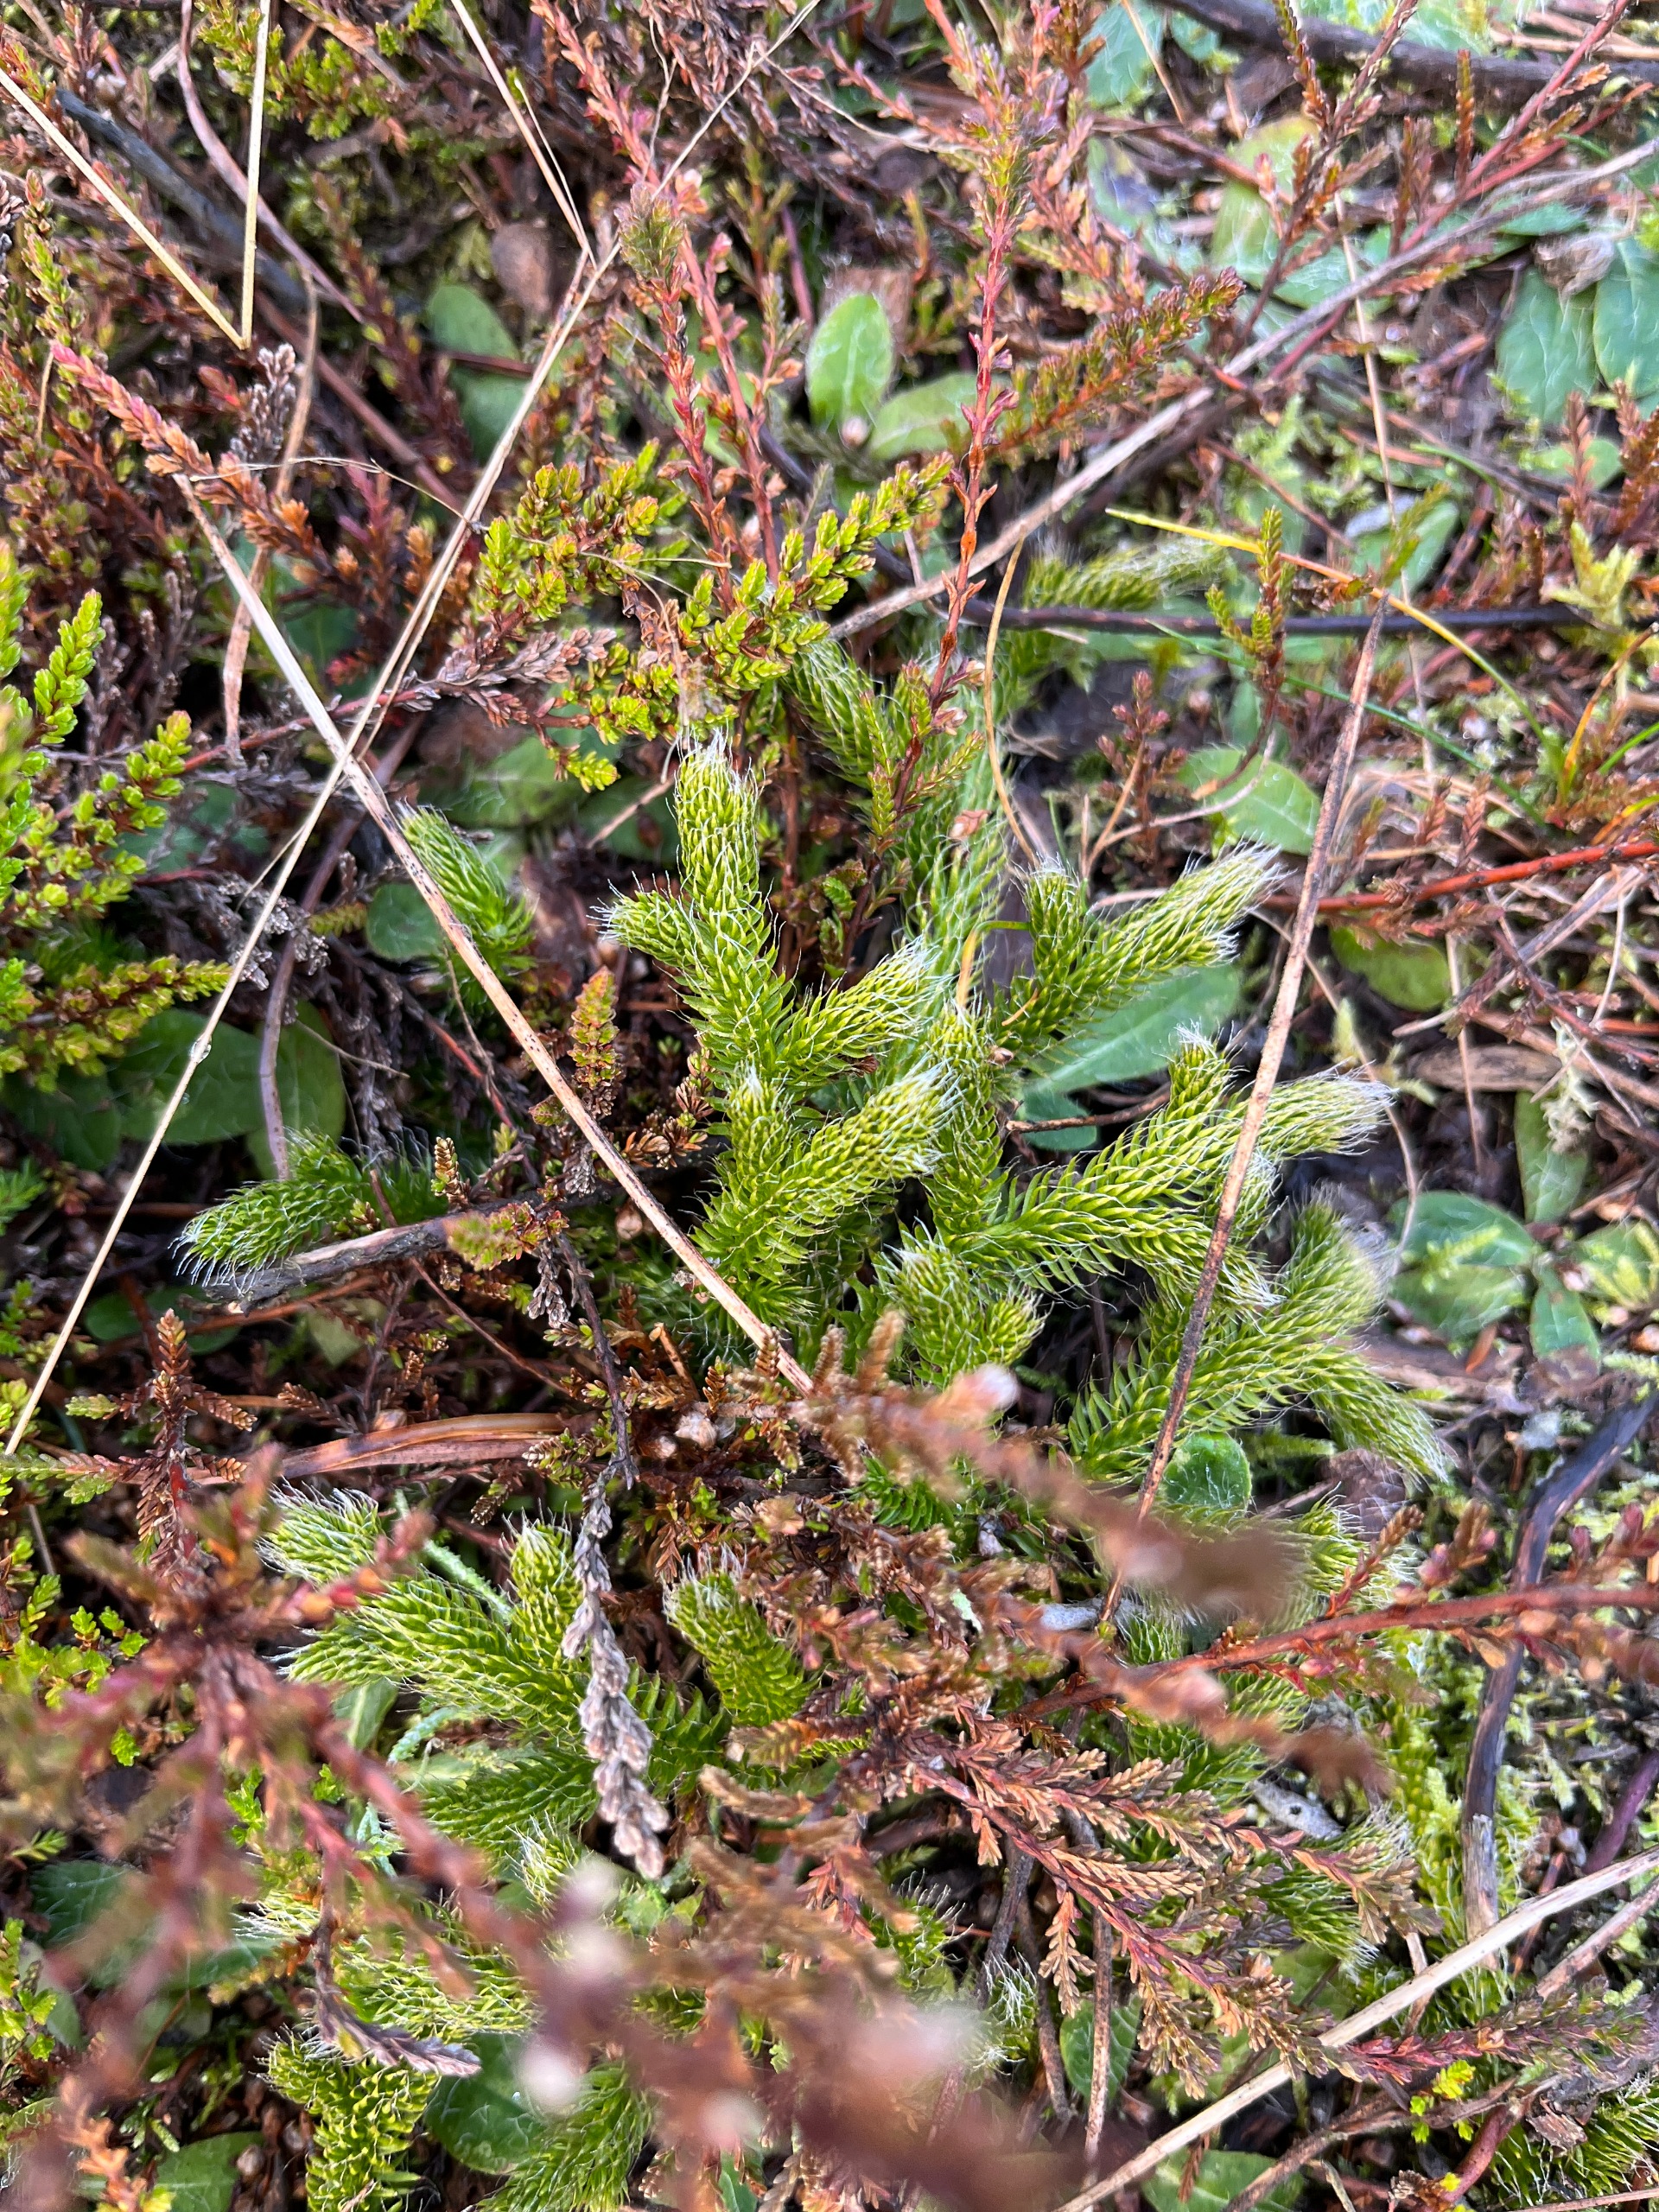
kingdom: Plantae
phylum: Tracheophyta
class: Lycopodiopsida
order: Lycopodiales
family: Lycopodiaceae
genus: Lycopodium
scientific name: Lycopodium clavatum
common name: Almindelig ulvefod
